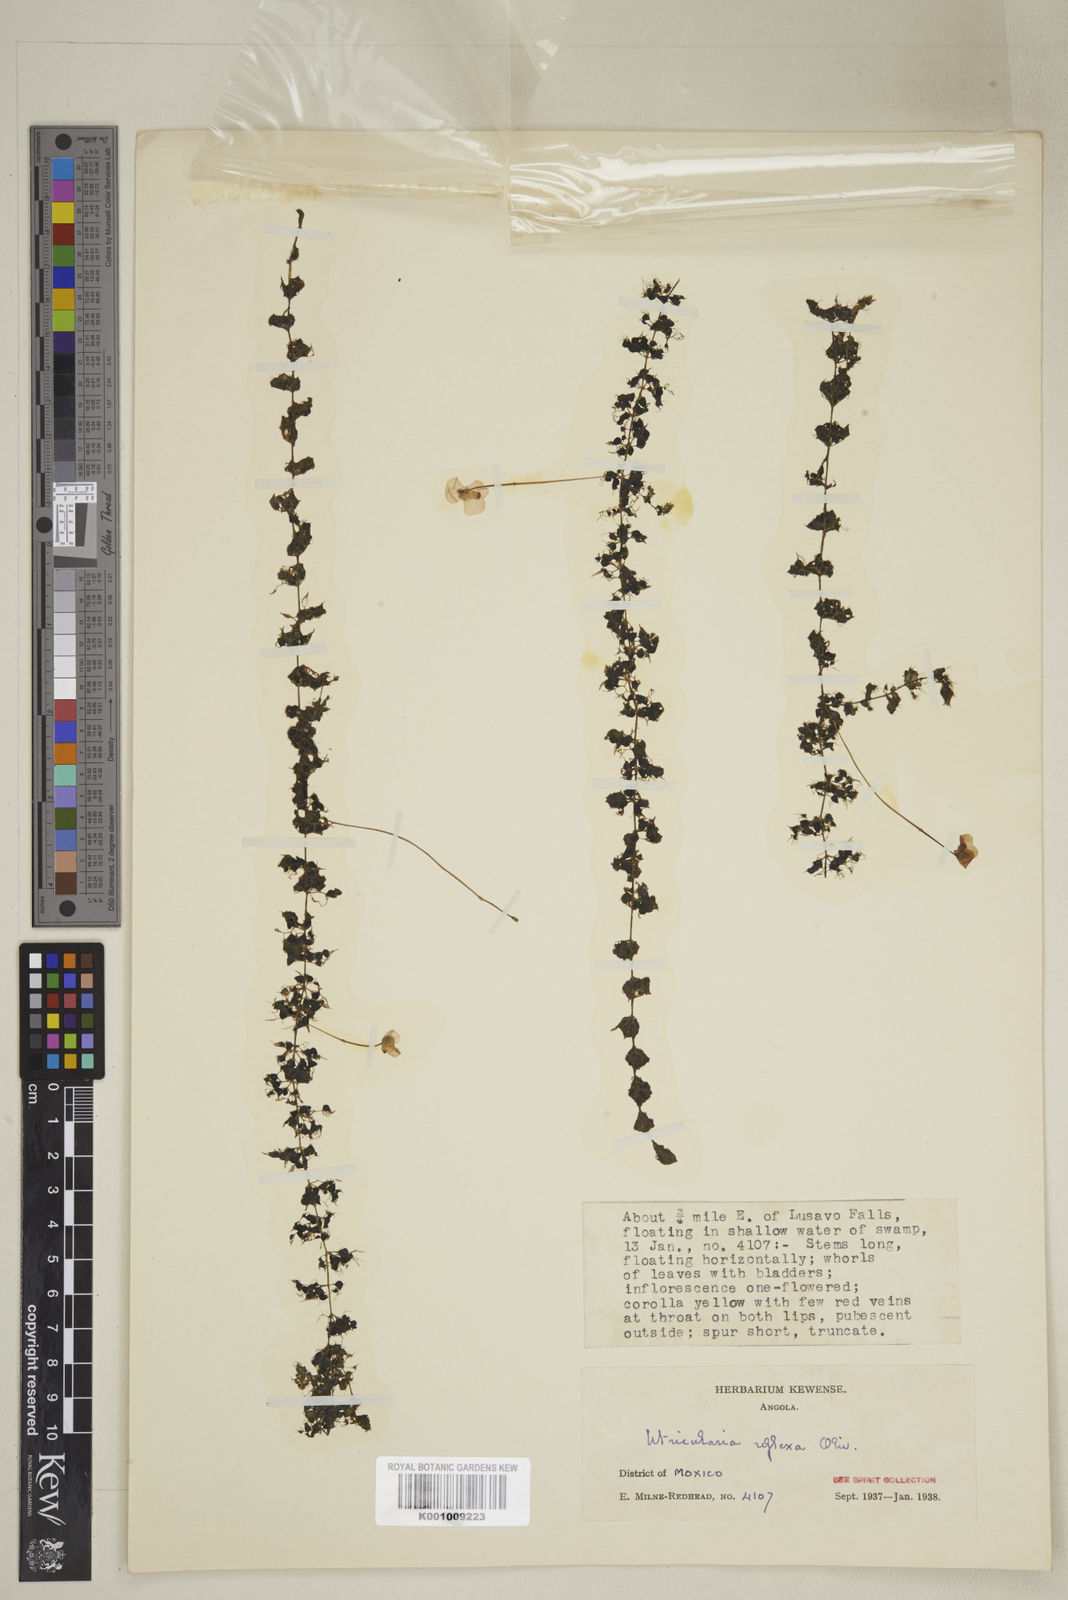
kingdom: Plantae
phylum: Tracheophyta
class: Magnoliopsida
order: Lamiales
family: Lentibulariaceae
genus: Utricularia
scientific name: Utricularia reflexa
